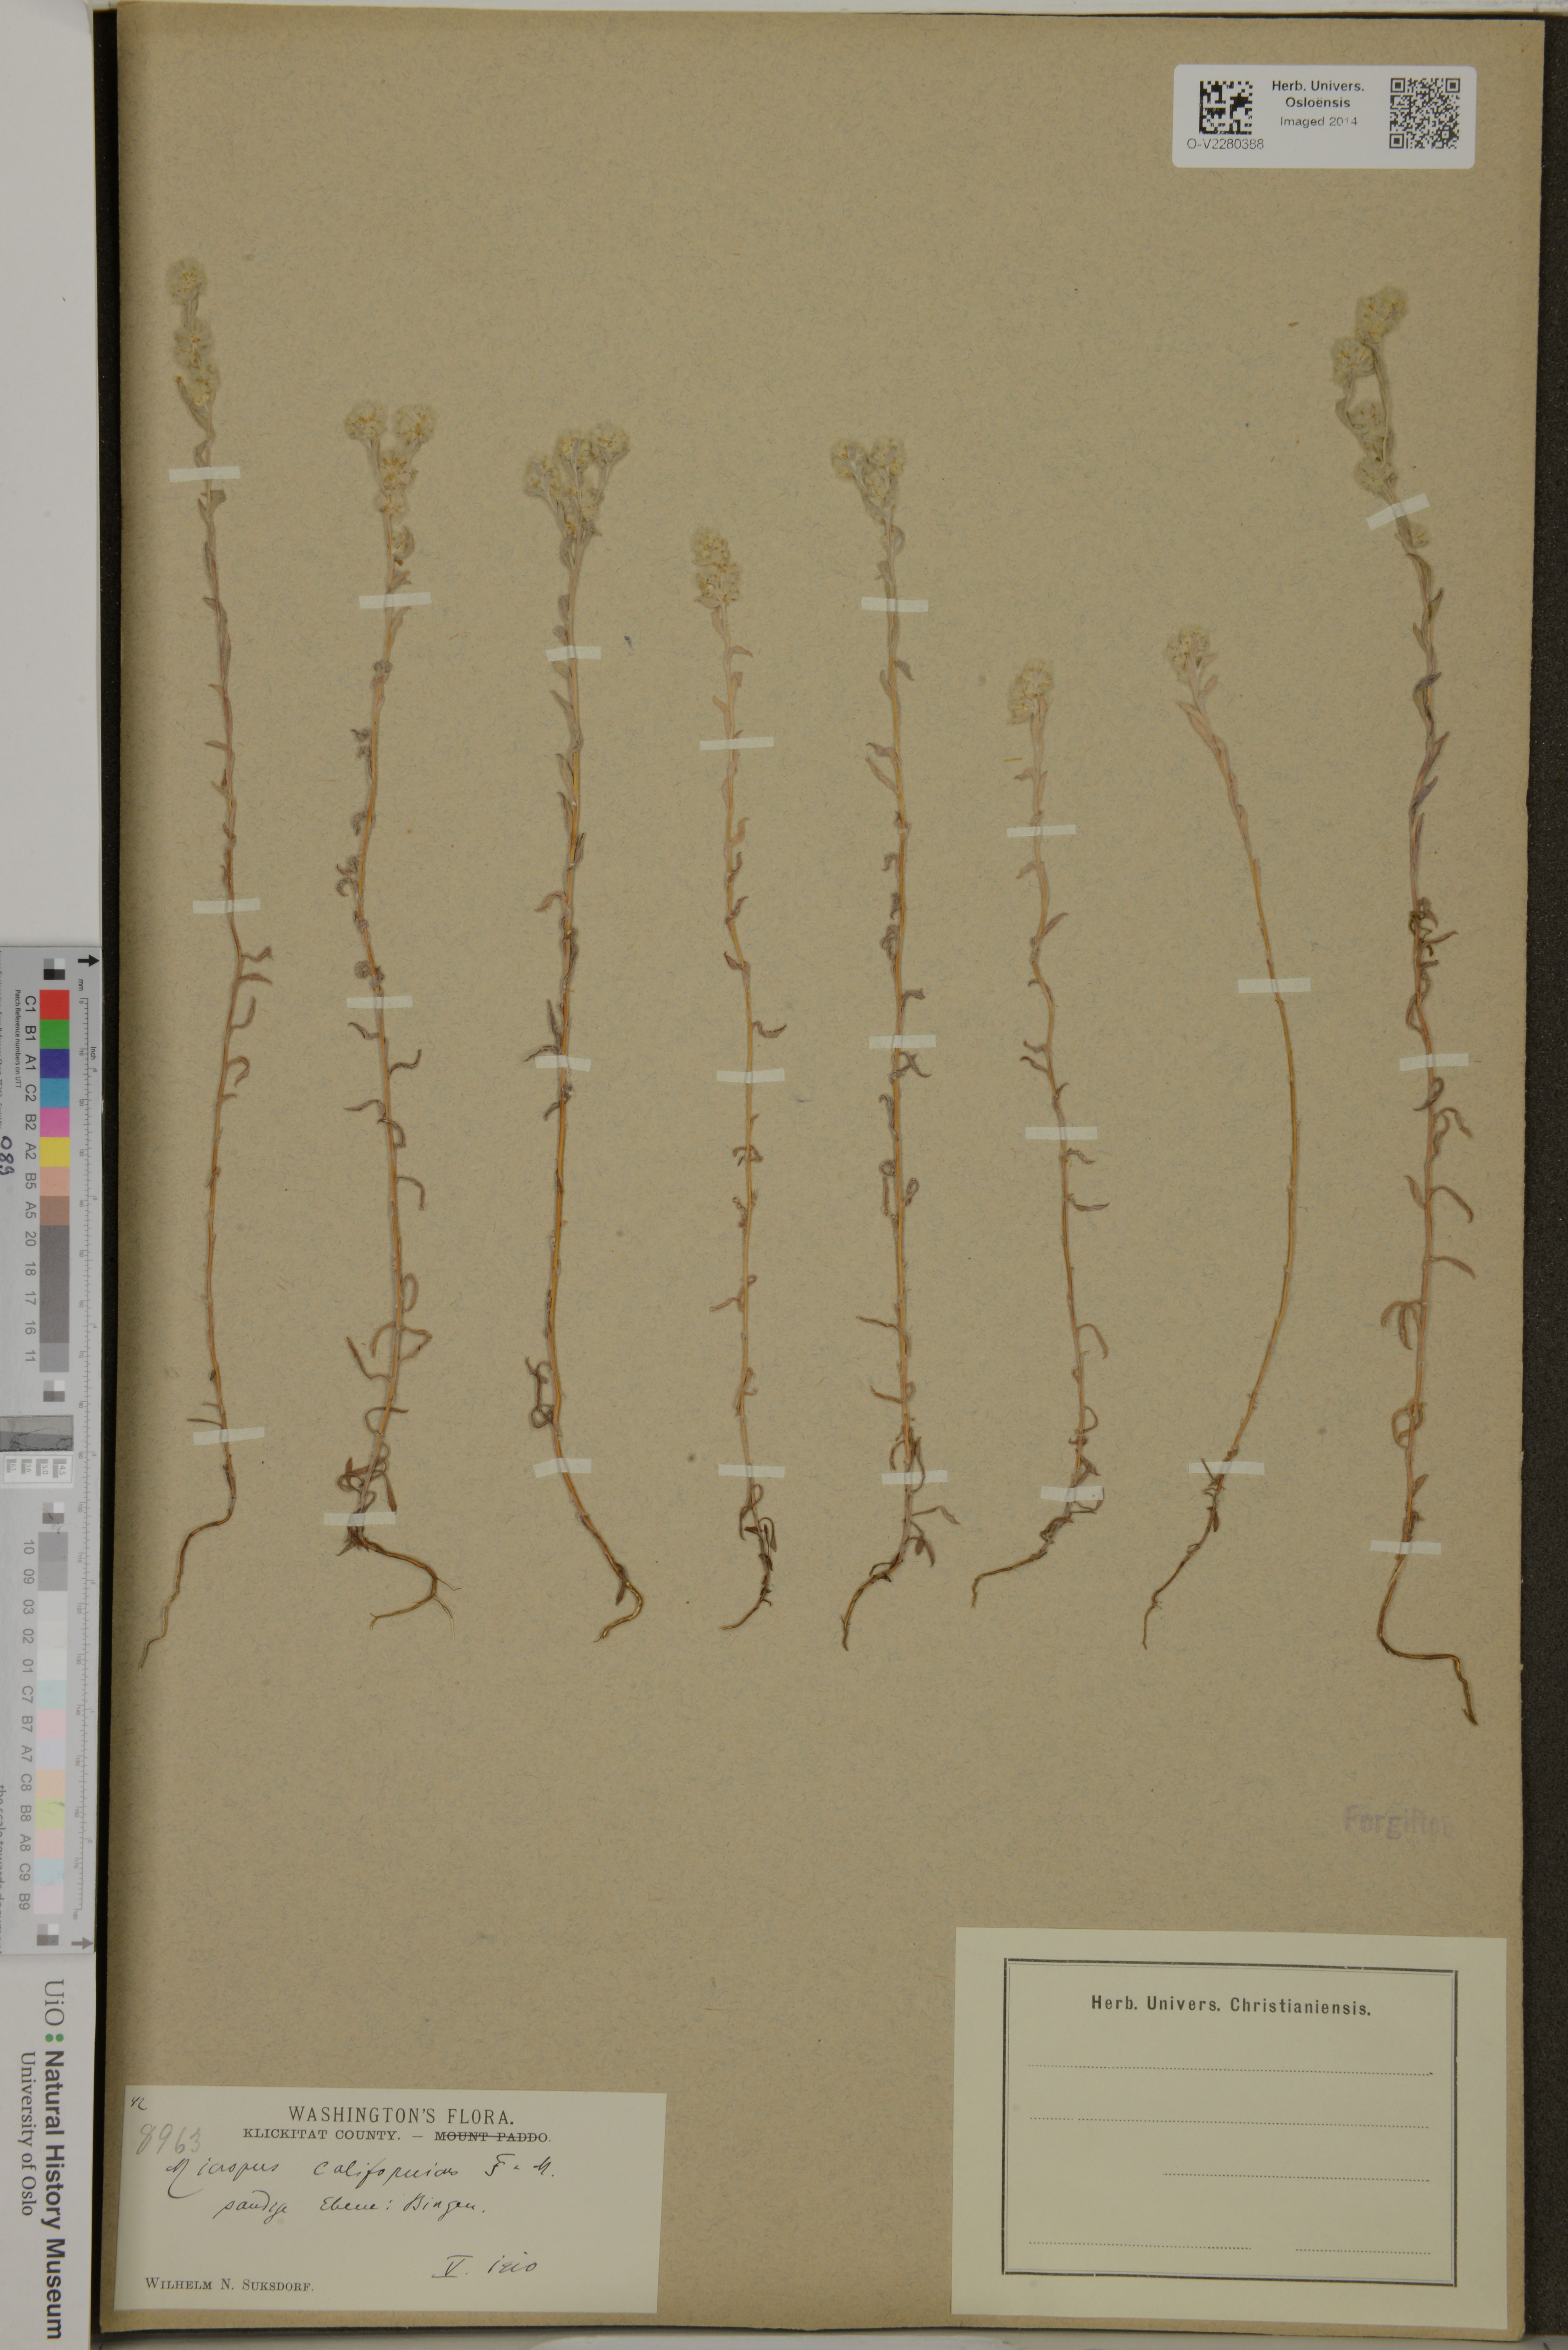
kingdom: Plantae
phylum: Tracheophyta
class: Magnoliopsida
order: Asterales
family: Asteraceae
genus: Bombycilaena
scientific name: Bombycilaena californica
